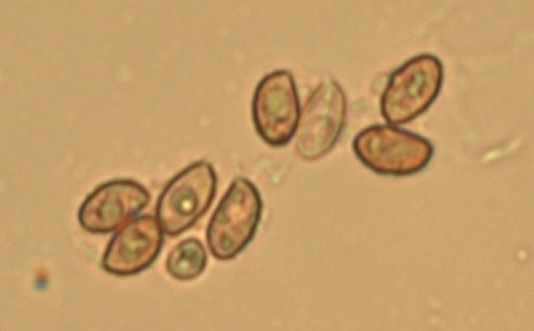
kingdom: Fungi
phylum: Basidiomycota
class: Agaricomycetes
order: Agaricales
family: Cortinariaceae
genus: Cortinarius
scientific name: Cortinarius delibutus
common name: gul slørhat
